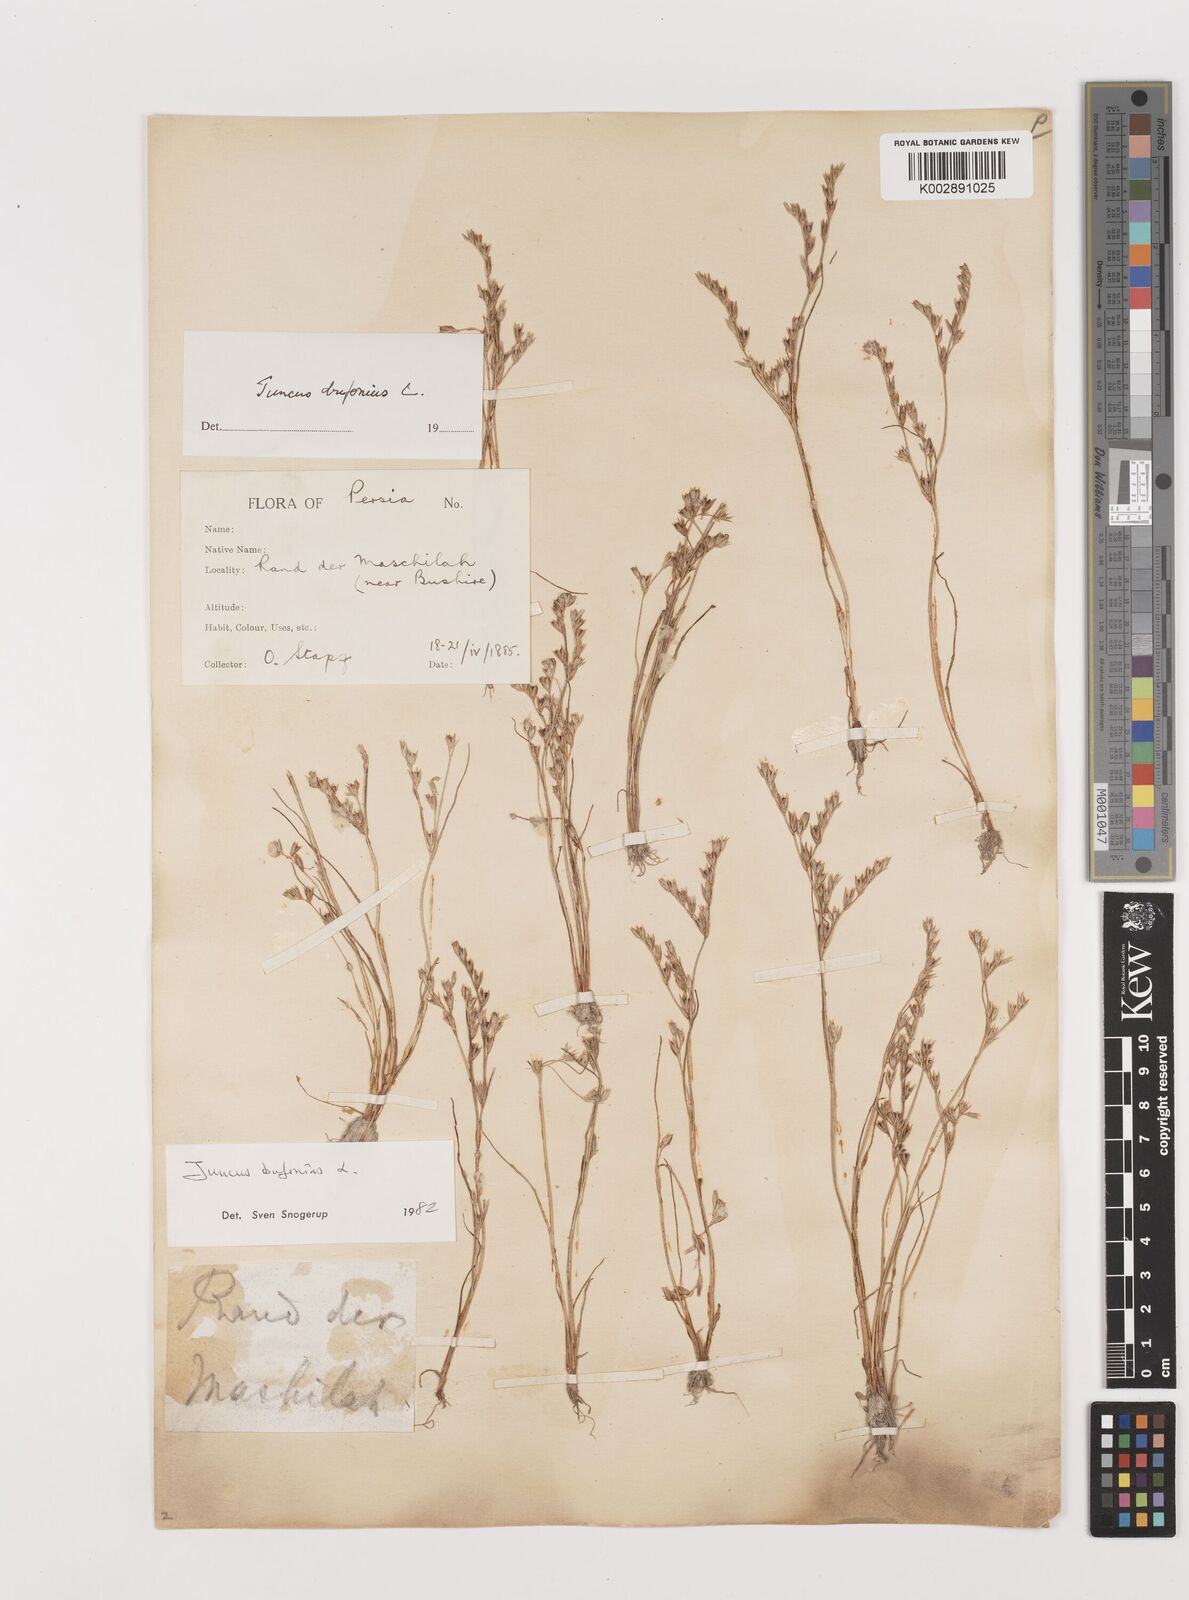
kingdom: Plantae
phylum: Tracheophyta
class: Liliopsida
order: Poales
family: Juncaceae
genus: Juncus
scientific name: Juncus bufonius
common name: Toad rush
